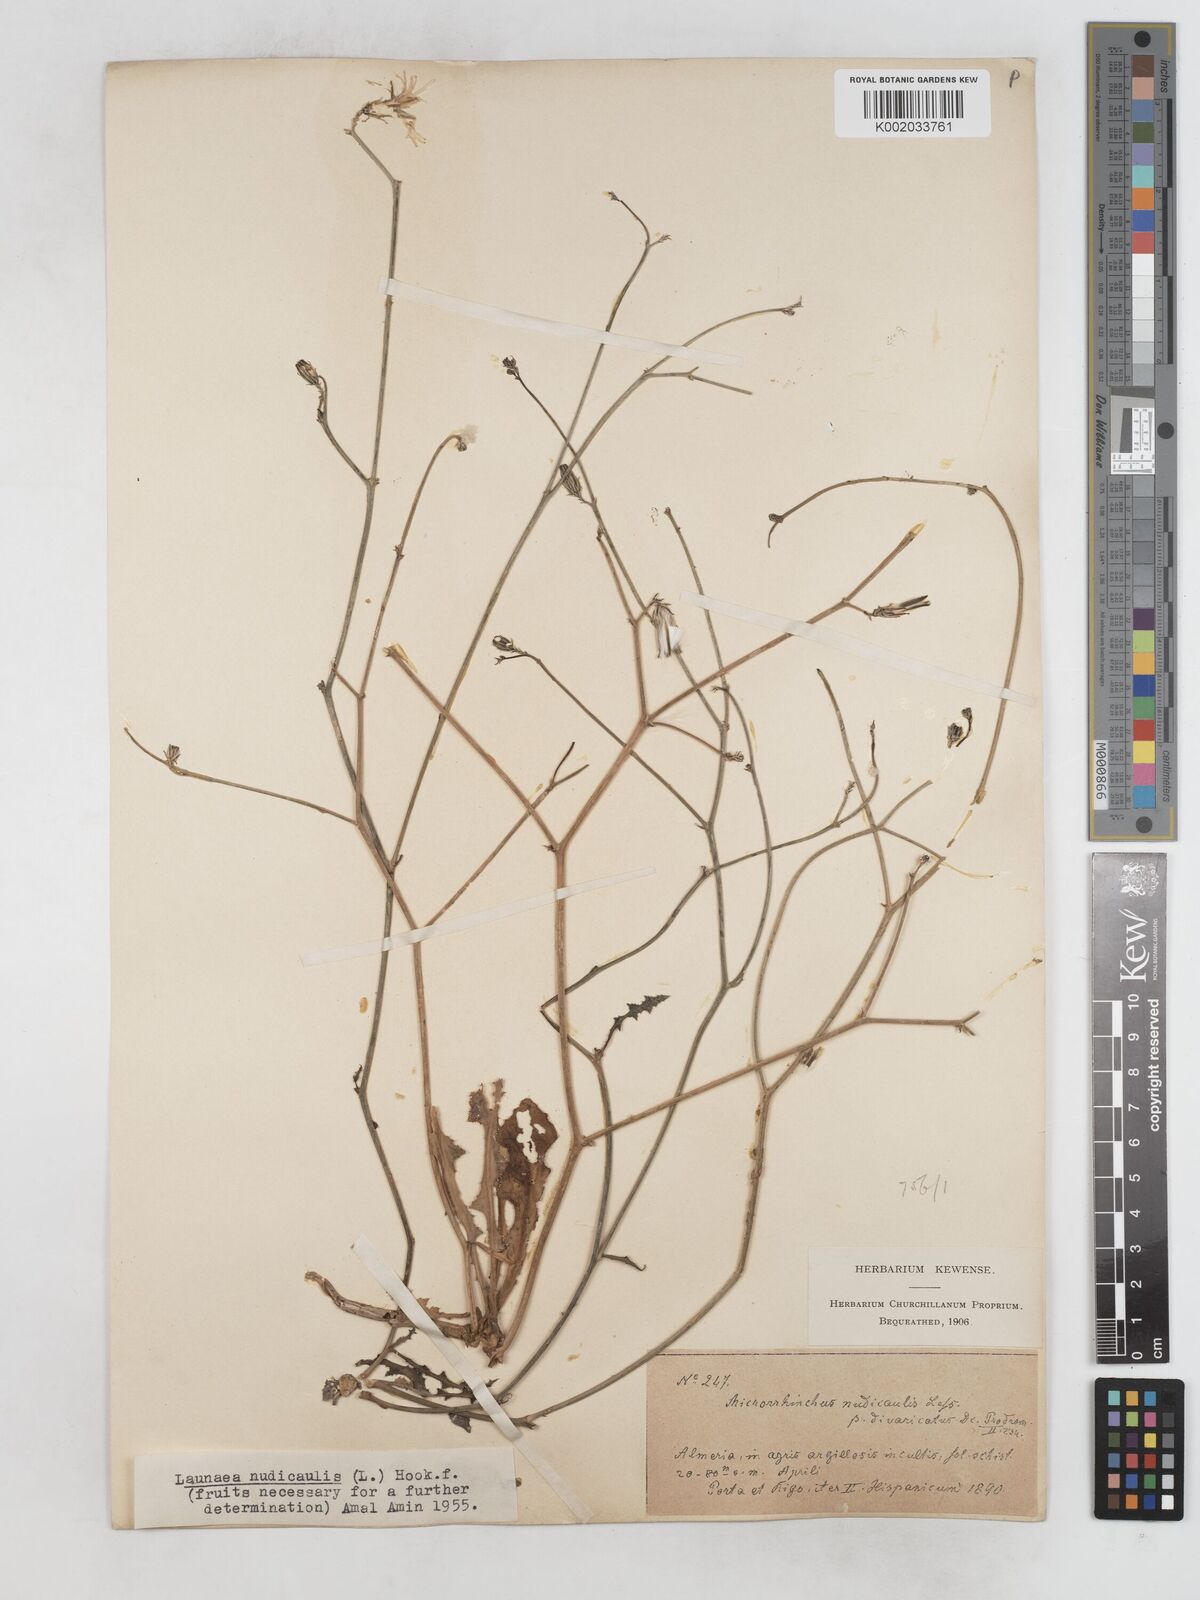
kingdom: Plantae
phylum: Tracheophyta
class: Magnoliopsida
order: Asterales
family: Asteraceae
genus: Launaea
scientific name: Launaea nudicaulis
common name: Naked launaea
